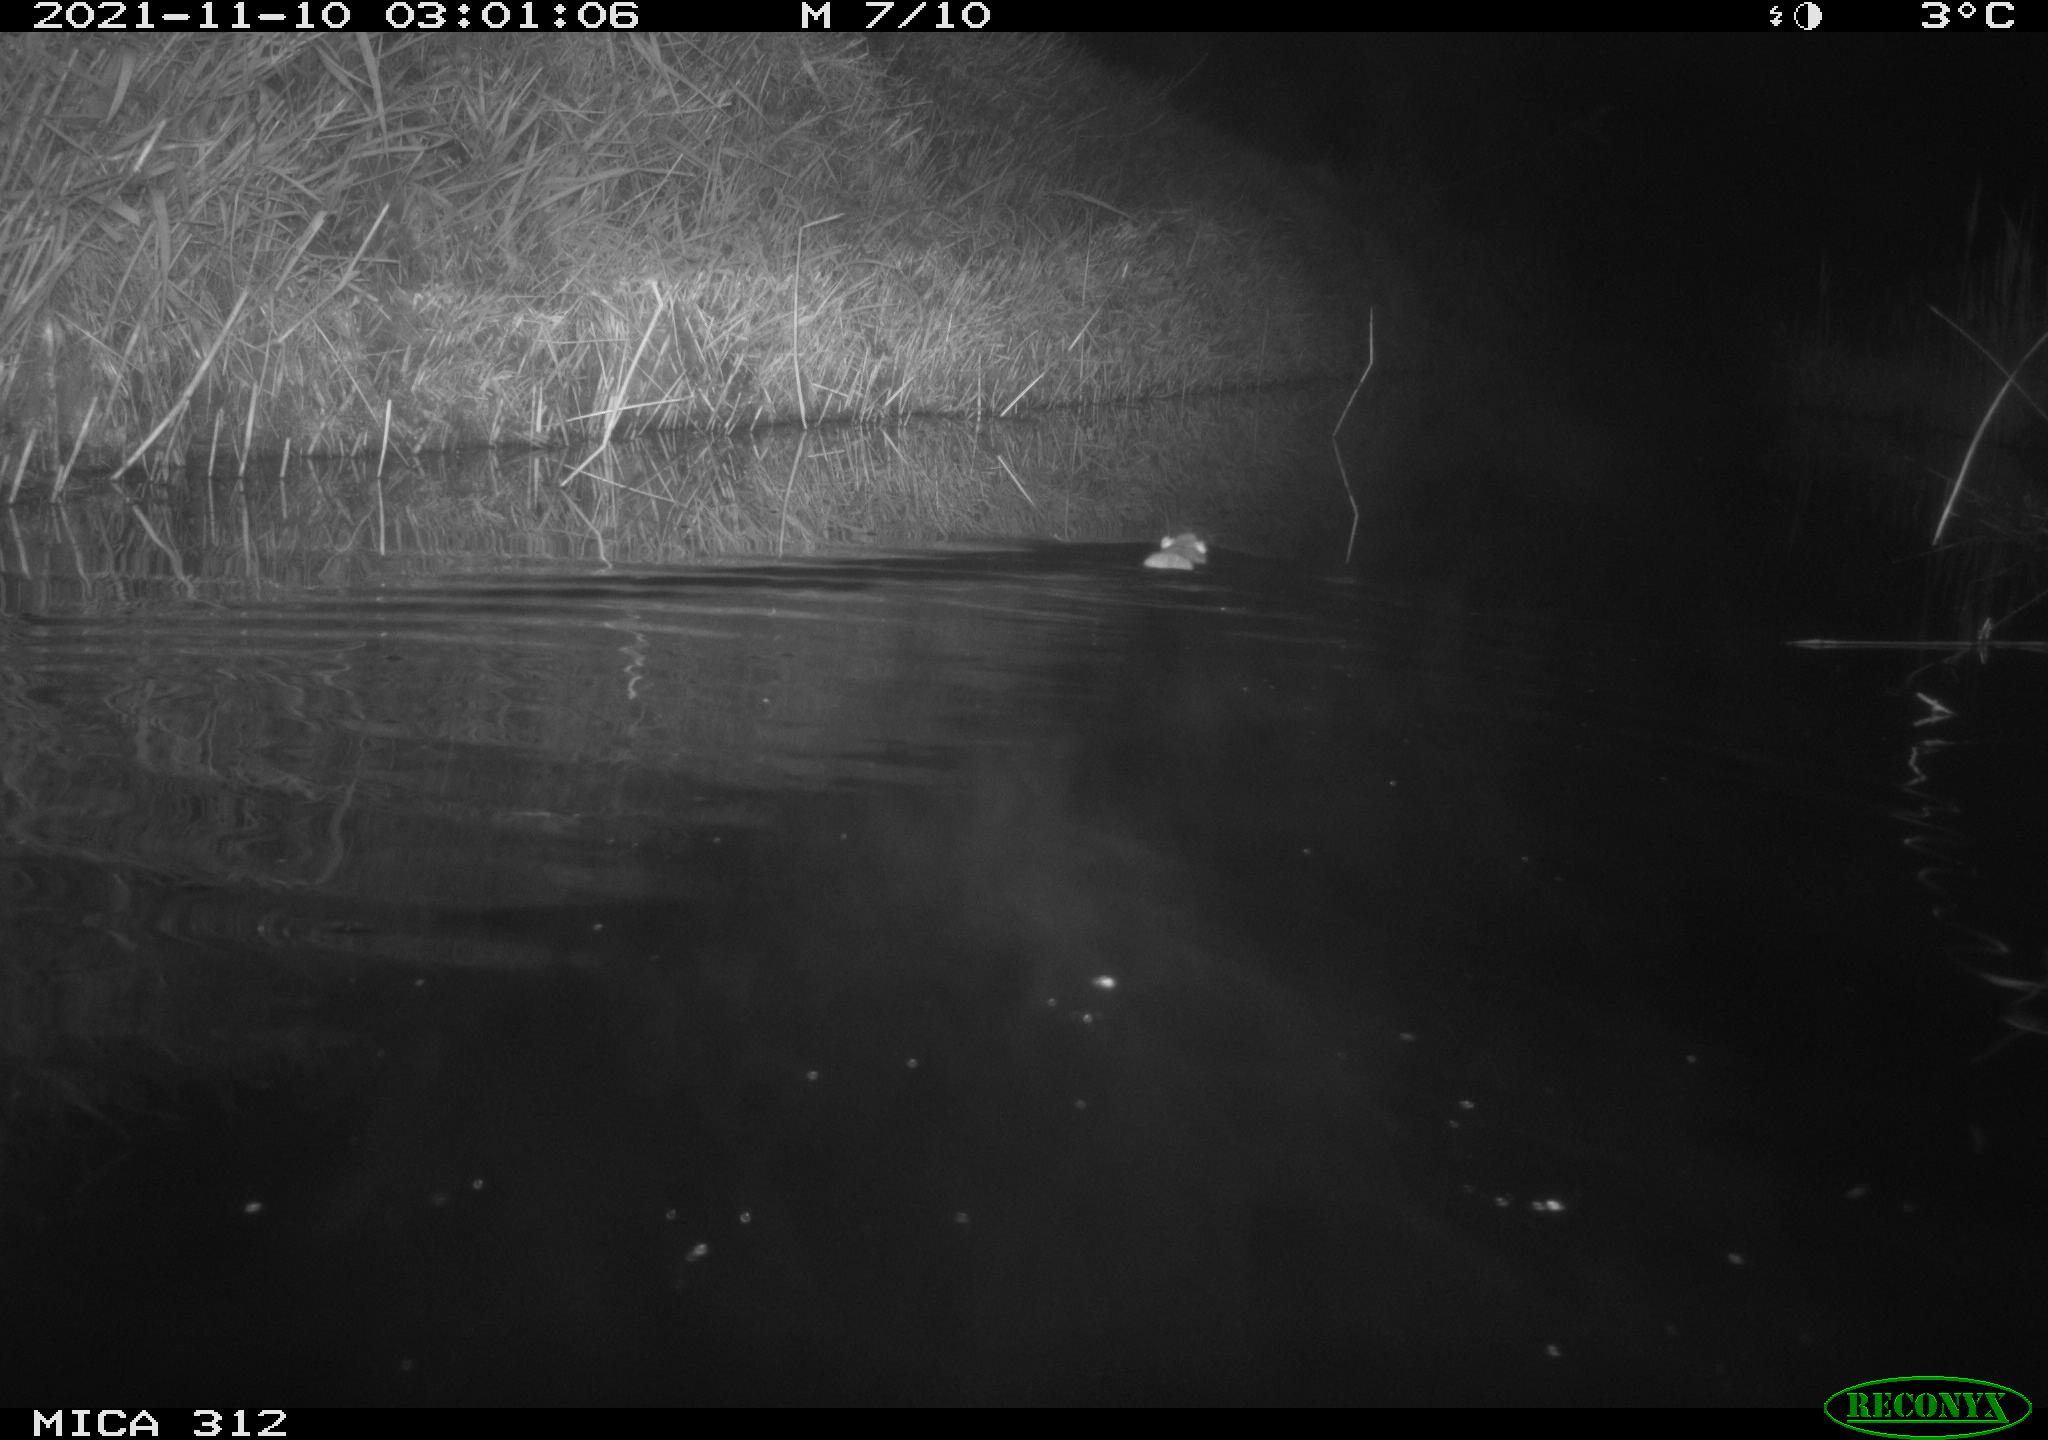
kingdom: Animalia
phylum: Chordata
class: Mammalia
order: Rodentia
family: Muridae
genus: Rattus
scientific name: Rattus norvegicus
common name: Brown rat
